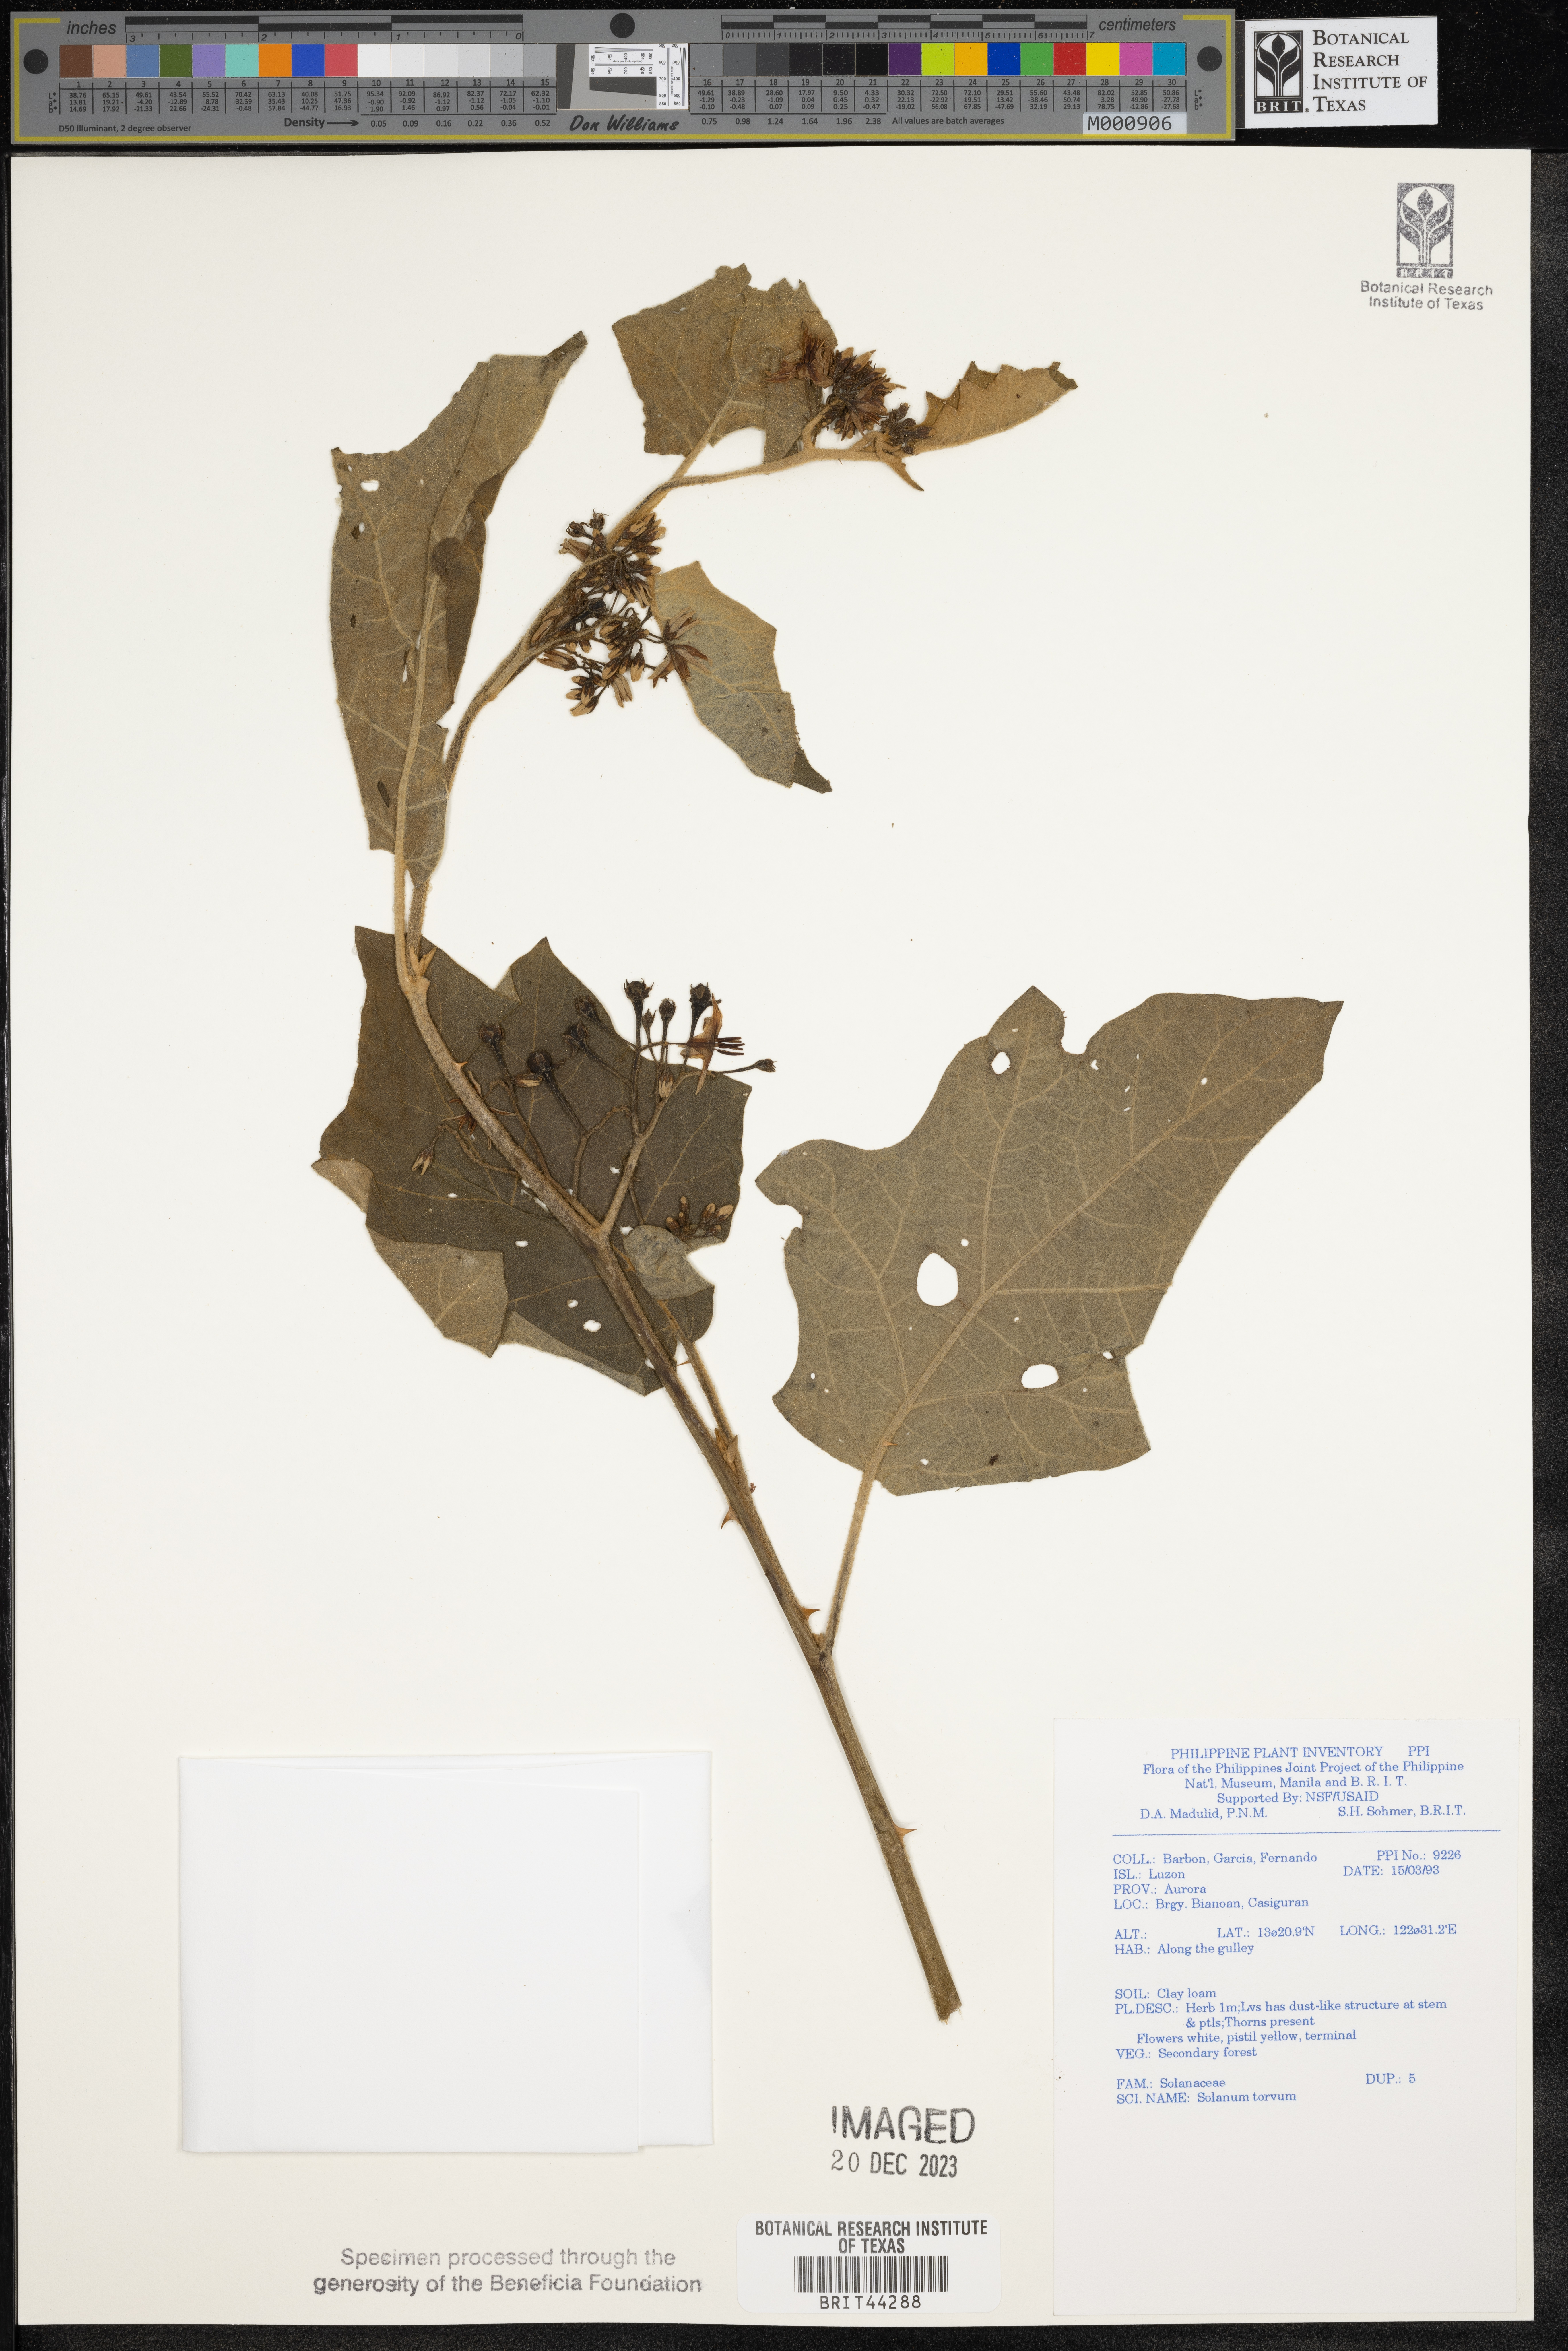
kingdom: Plantae
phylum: Tracheophyta
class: Magnoliopsida
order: Solanales
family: Solanaceae
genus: Solanum
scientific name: Solanum torvum
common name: Turkey berry
